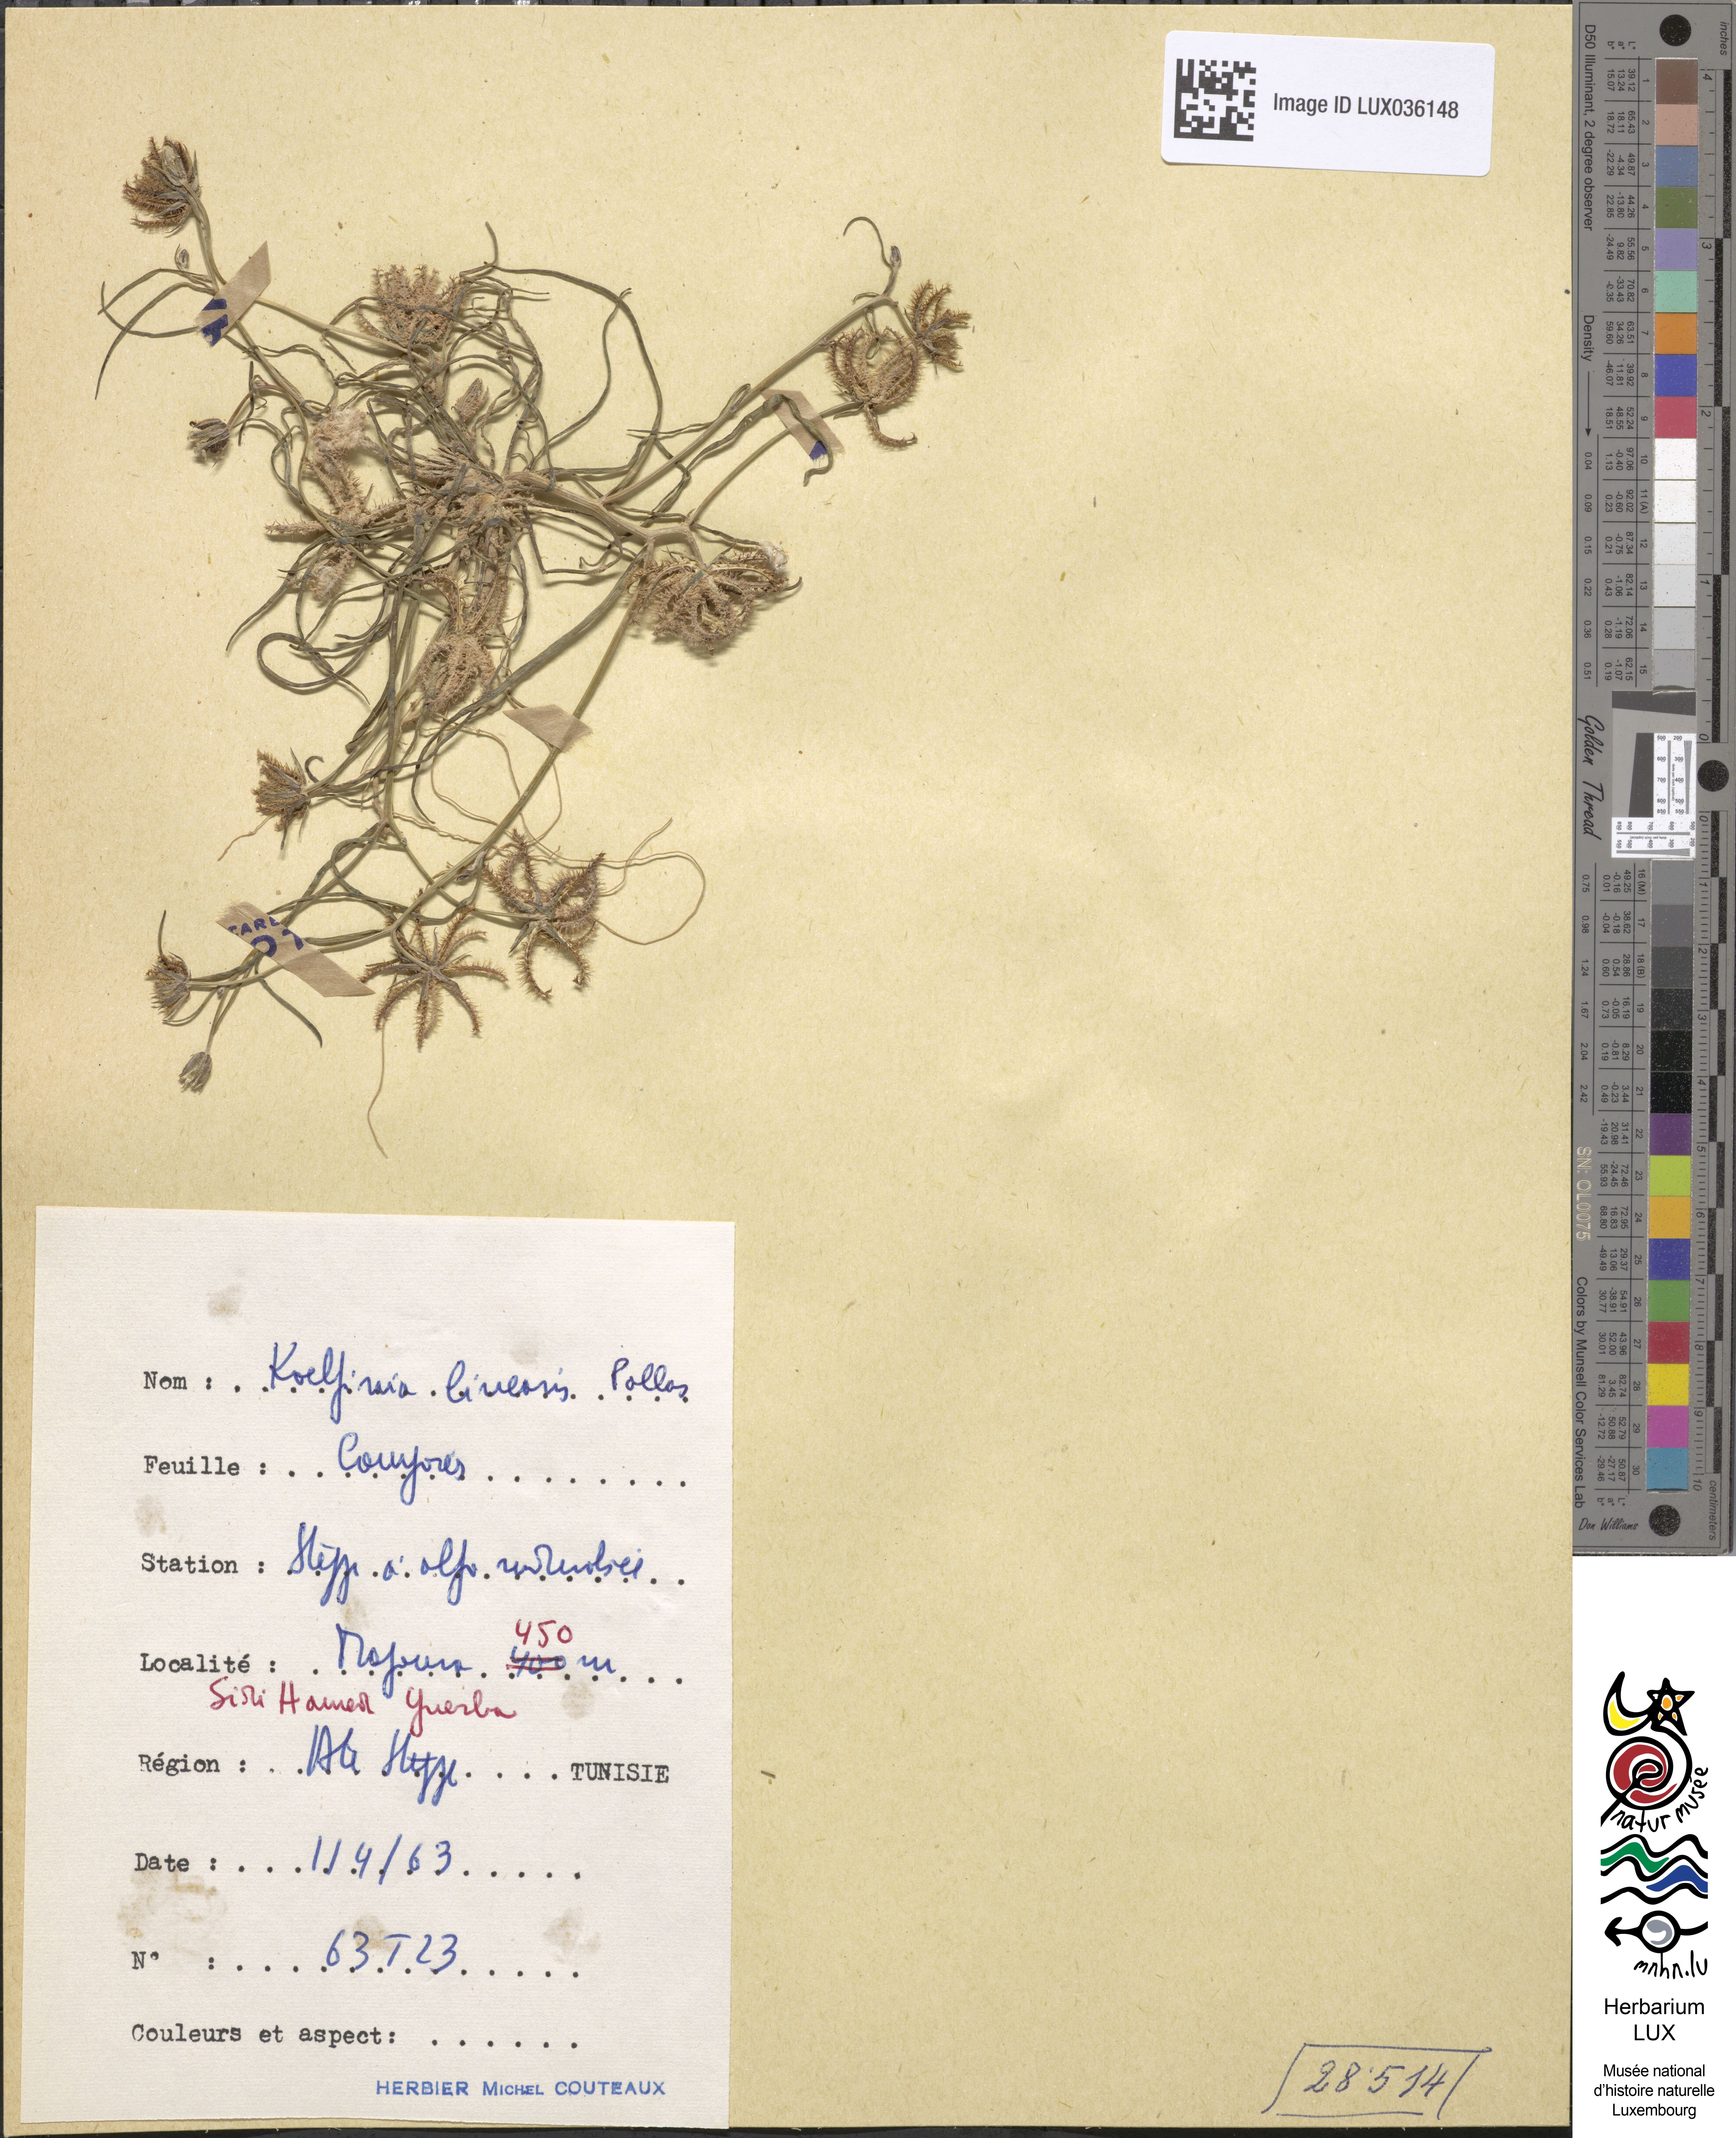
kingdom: Plantae
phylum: Tracheophyta
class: Magnoliopsida
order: Asterales
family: Asteraceae
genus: Koelpinia
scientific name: Koelpinia linearis
